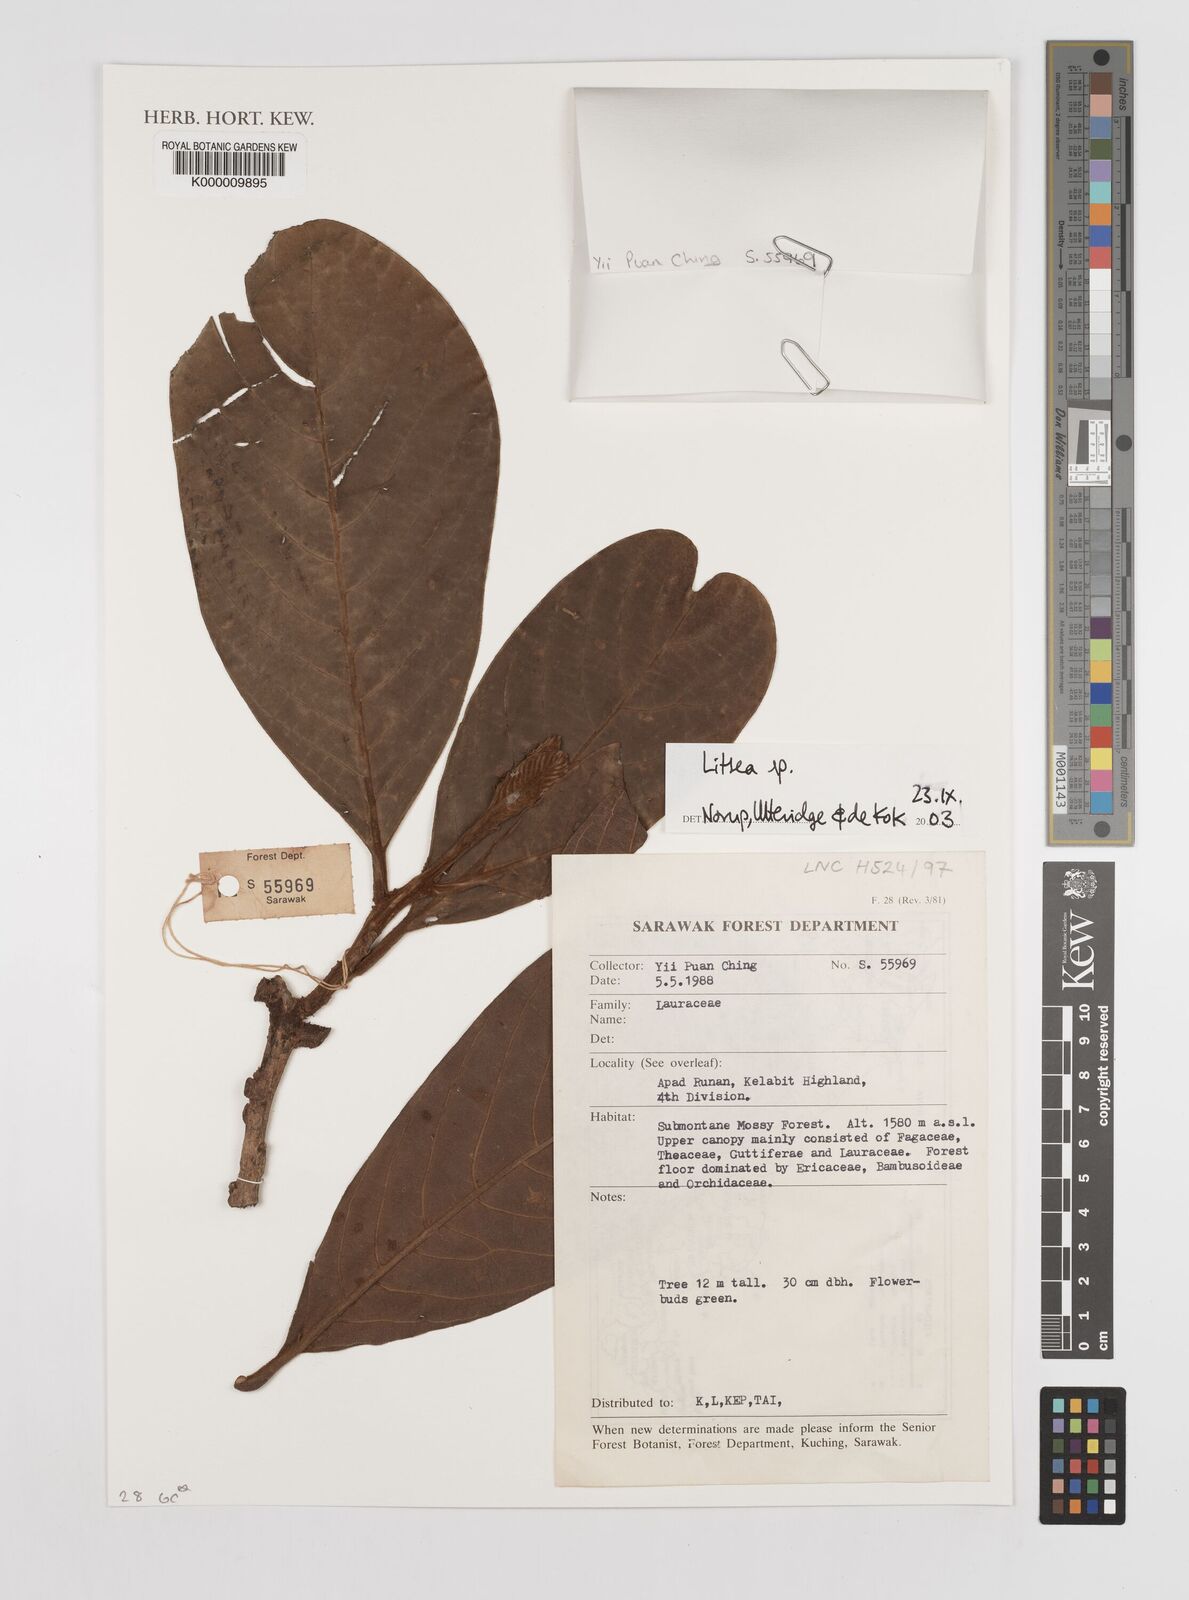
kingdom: Plantae
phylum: Tracheophyta
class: Magnoliopsida
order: Laurales
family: Lauraceae
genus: Litsea
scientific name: Litsea
